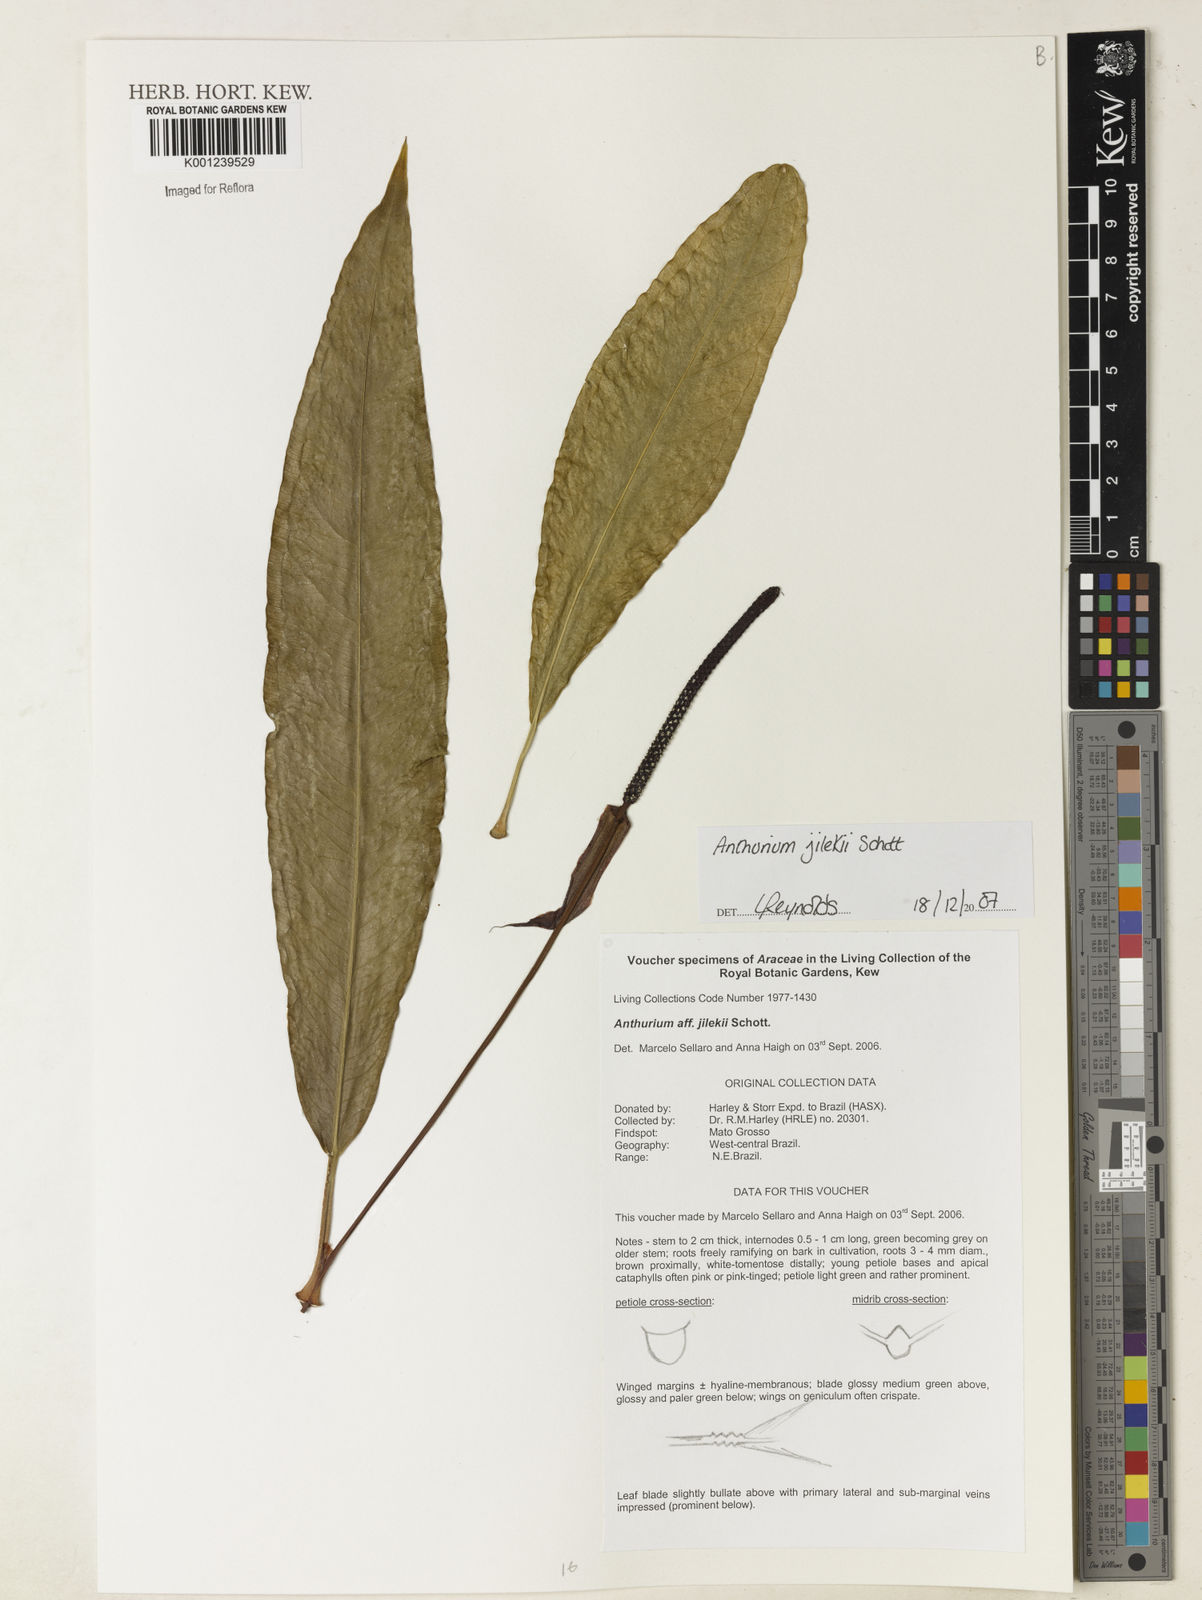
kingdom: Plantae
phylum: Tracheophyta
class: Liliopsida
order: Alismatales
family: Araceae
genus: Anthurium
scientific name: Anthurium jilekii
